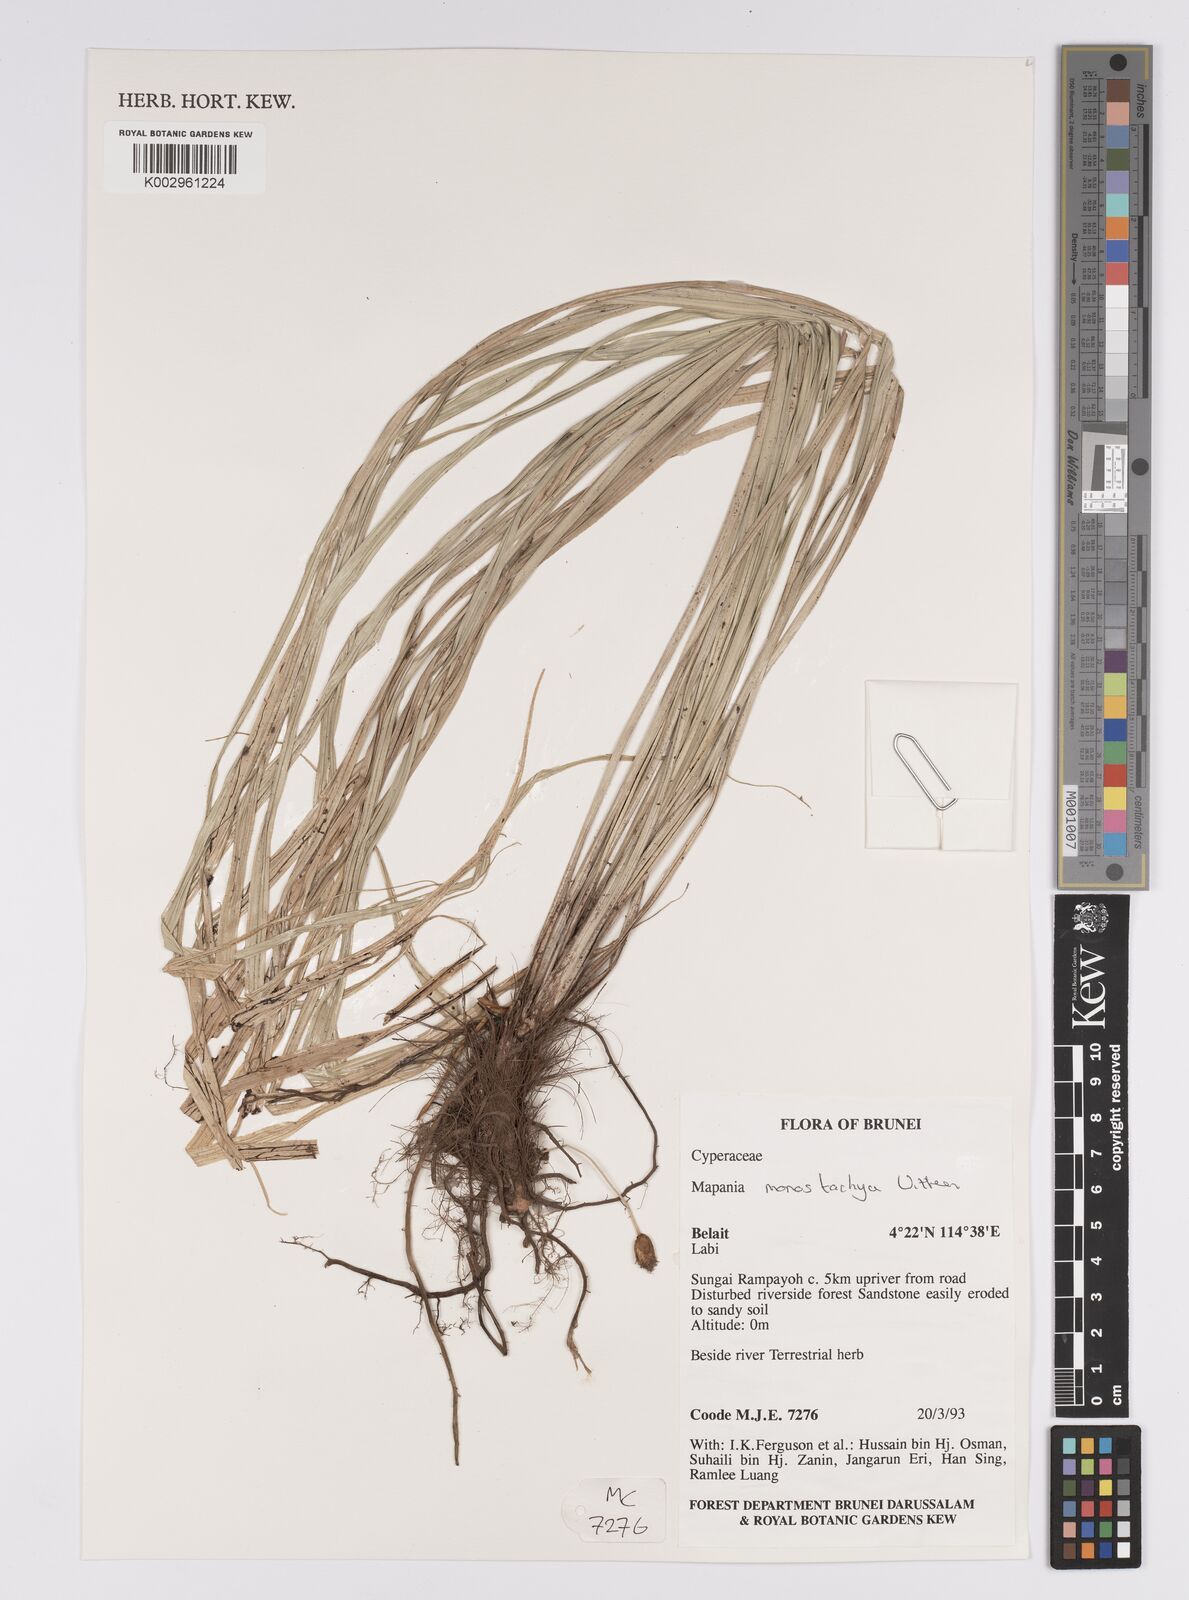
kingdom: Plantae
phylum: Tracheophyta
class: Liliopsida
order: Poales
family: Cyperaceae
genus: Mapania
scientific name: Mapania monostachya
